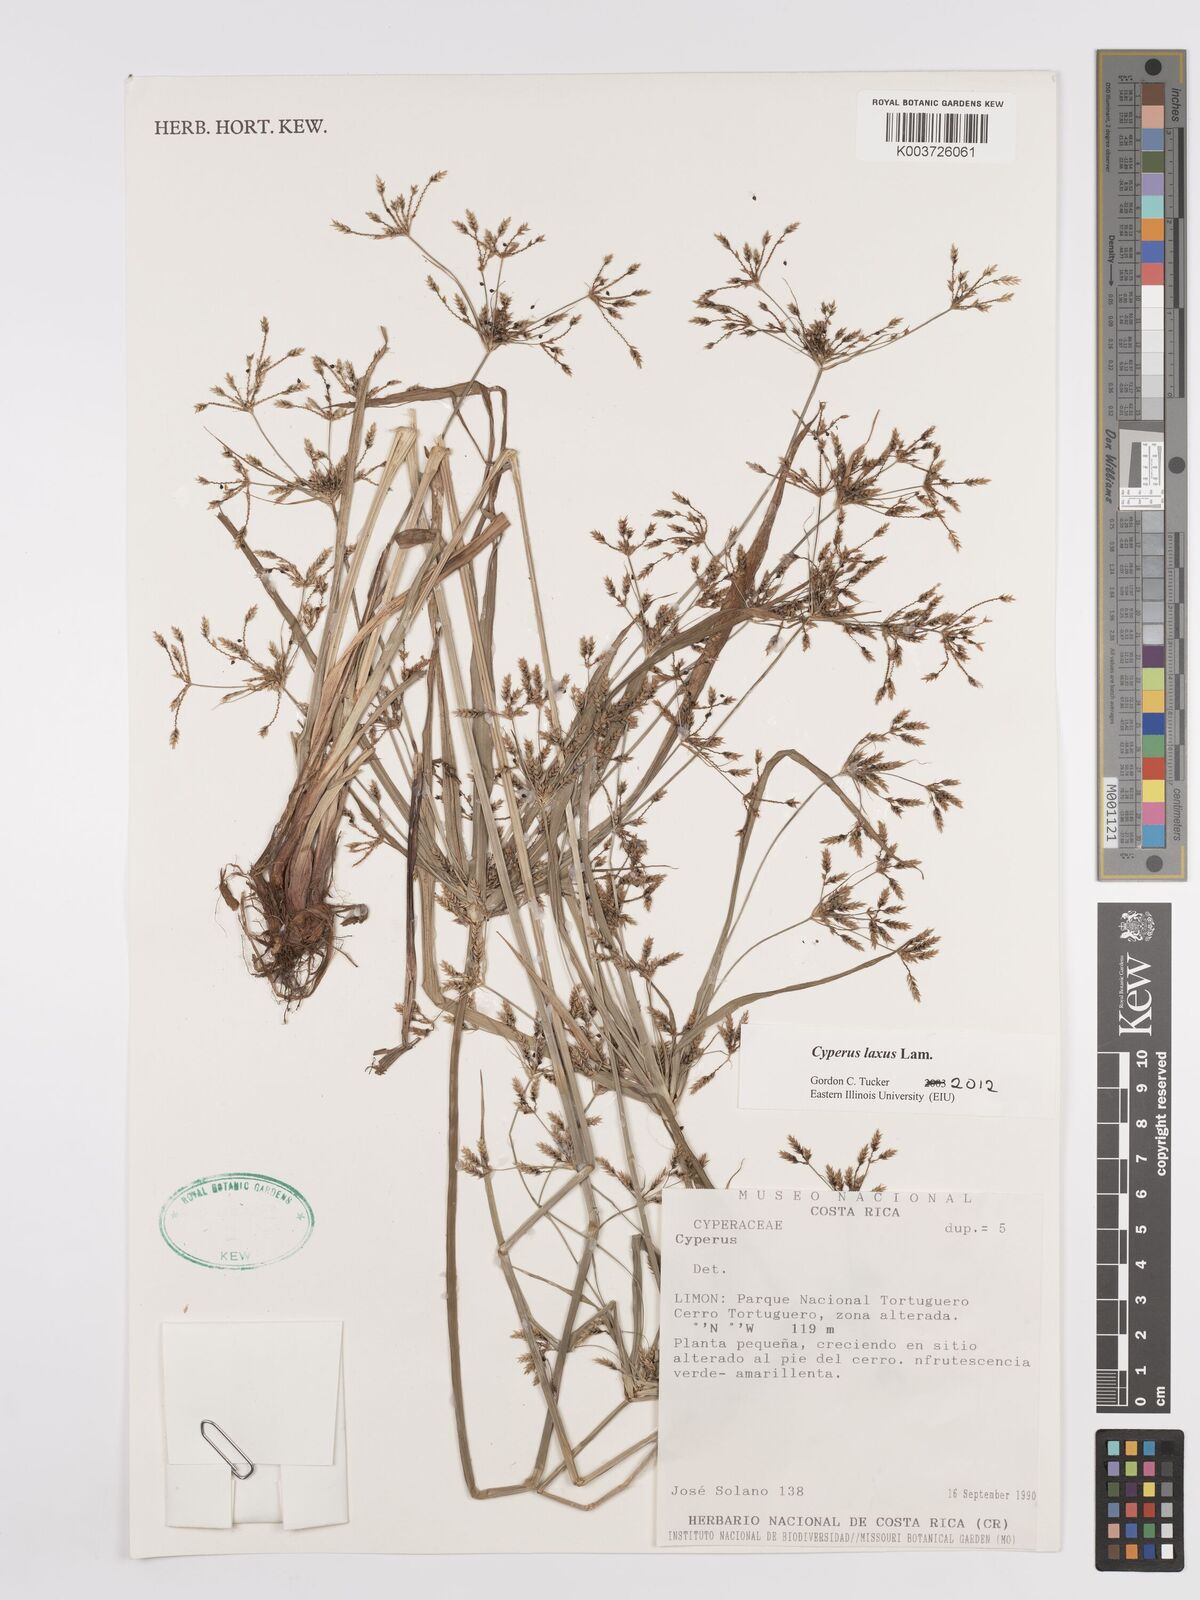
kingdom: Plantae
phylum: Tracheophyta
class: Liliopsida
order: Poales
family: Cyperaceae
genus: Cyperus
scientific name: Cyperus laxus
